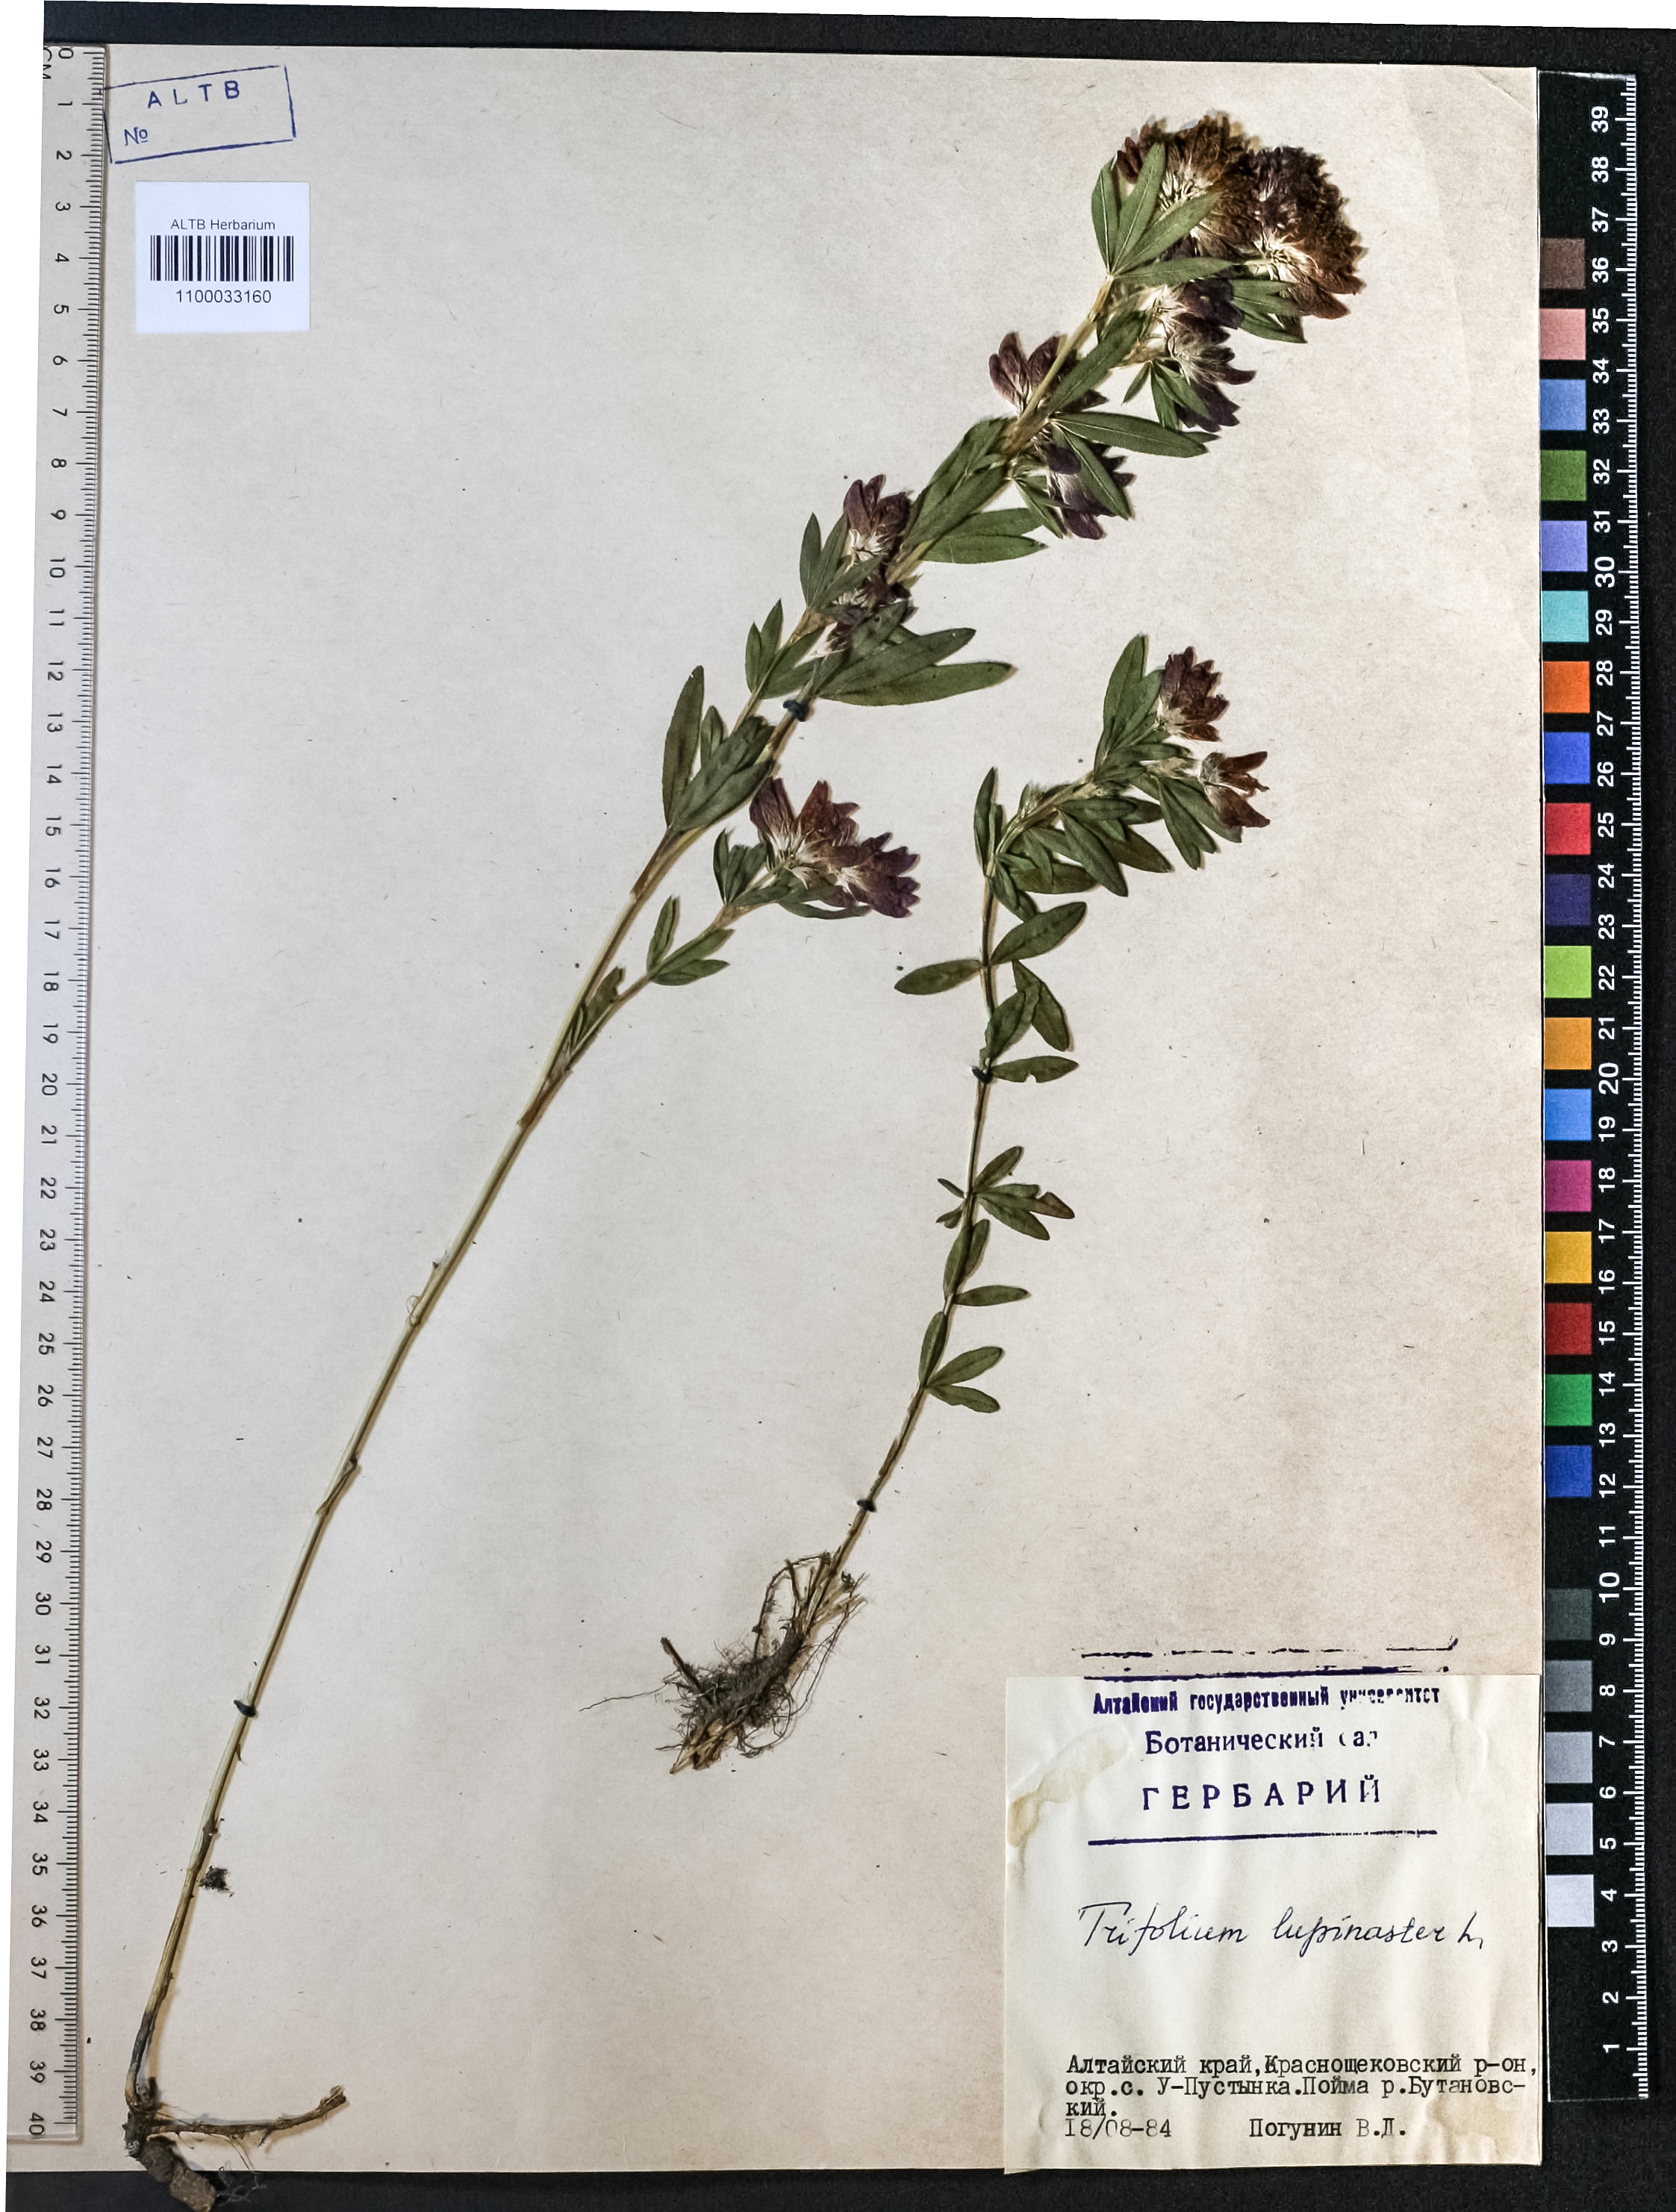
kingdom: Plantae
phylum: Tracheophyta
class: Magnoliopsida
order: Fabales
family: Fabaceae
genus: Trifolium
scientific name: Trifolium lupinaster
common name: Lupine clover
